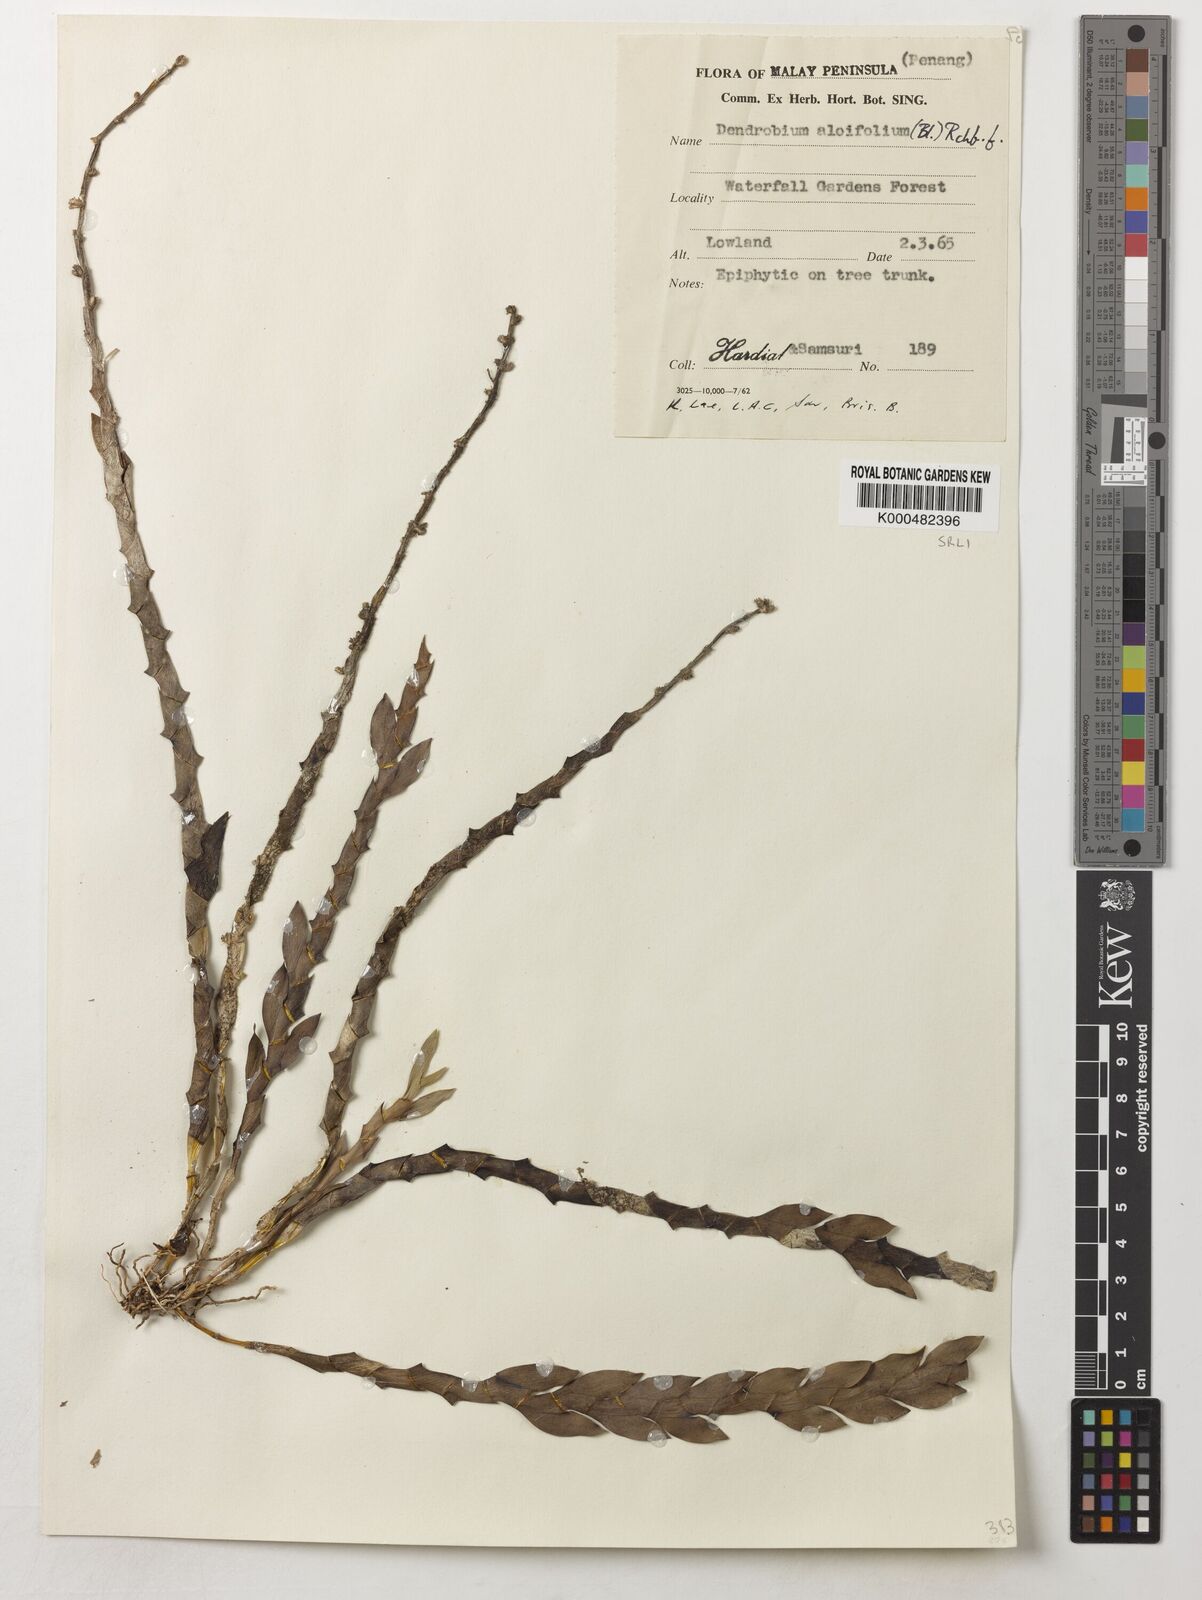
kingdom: Plantae
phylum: Tracheophyta
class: Liliopsida
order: Asparagales
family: Orchidaceae
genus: Dendrobium
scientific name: Dendrobium aloifolium
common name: Aloe-like dendrobium
